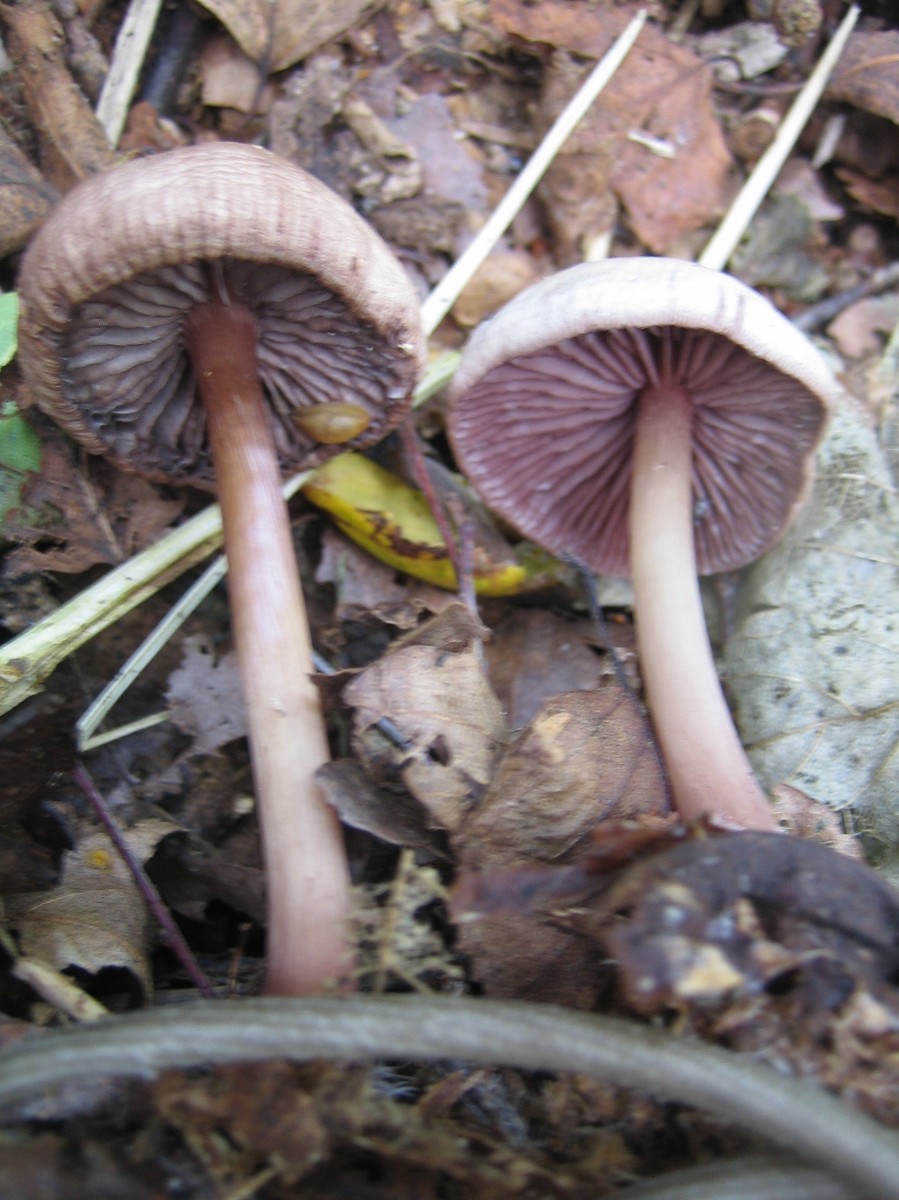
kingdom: Fungi
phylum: Basidiomycota
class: Agaricomycetes
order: Agaricales
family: Mycenaceae
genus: Mycena
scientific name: Mycena pelianthina
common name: mørkbladet huesvamp
